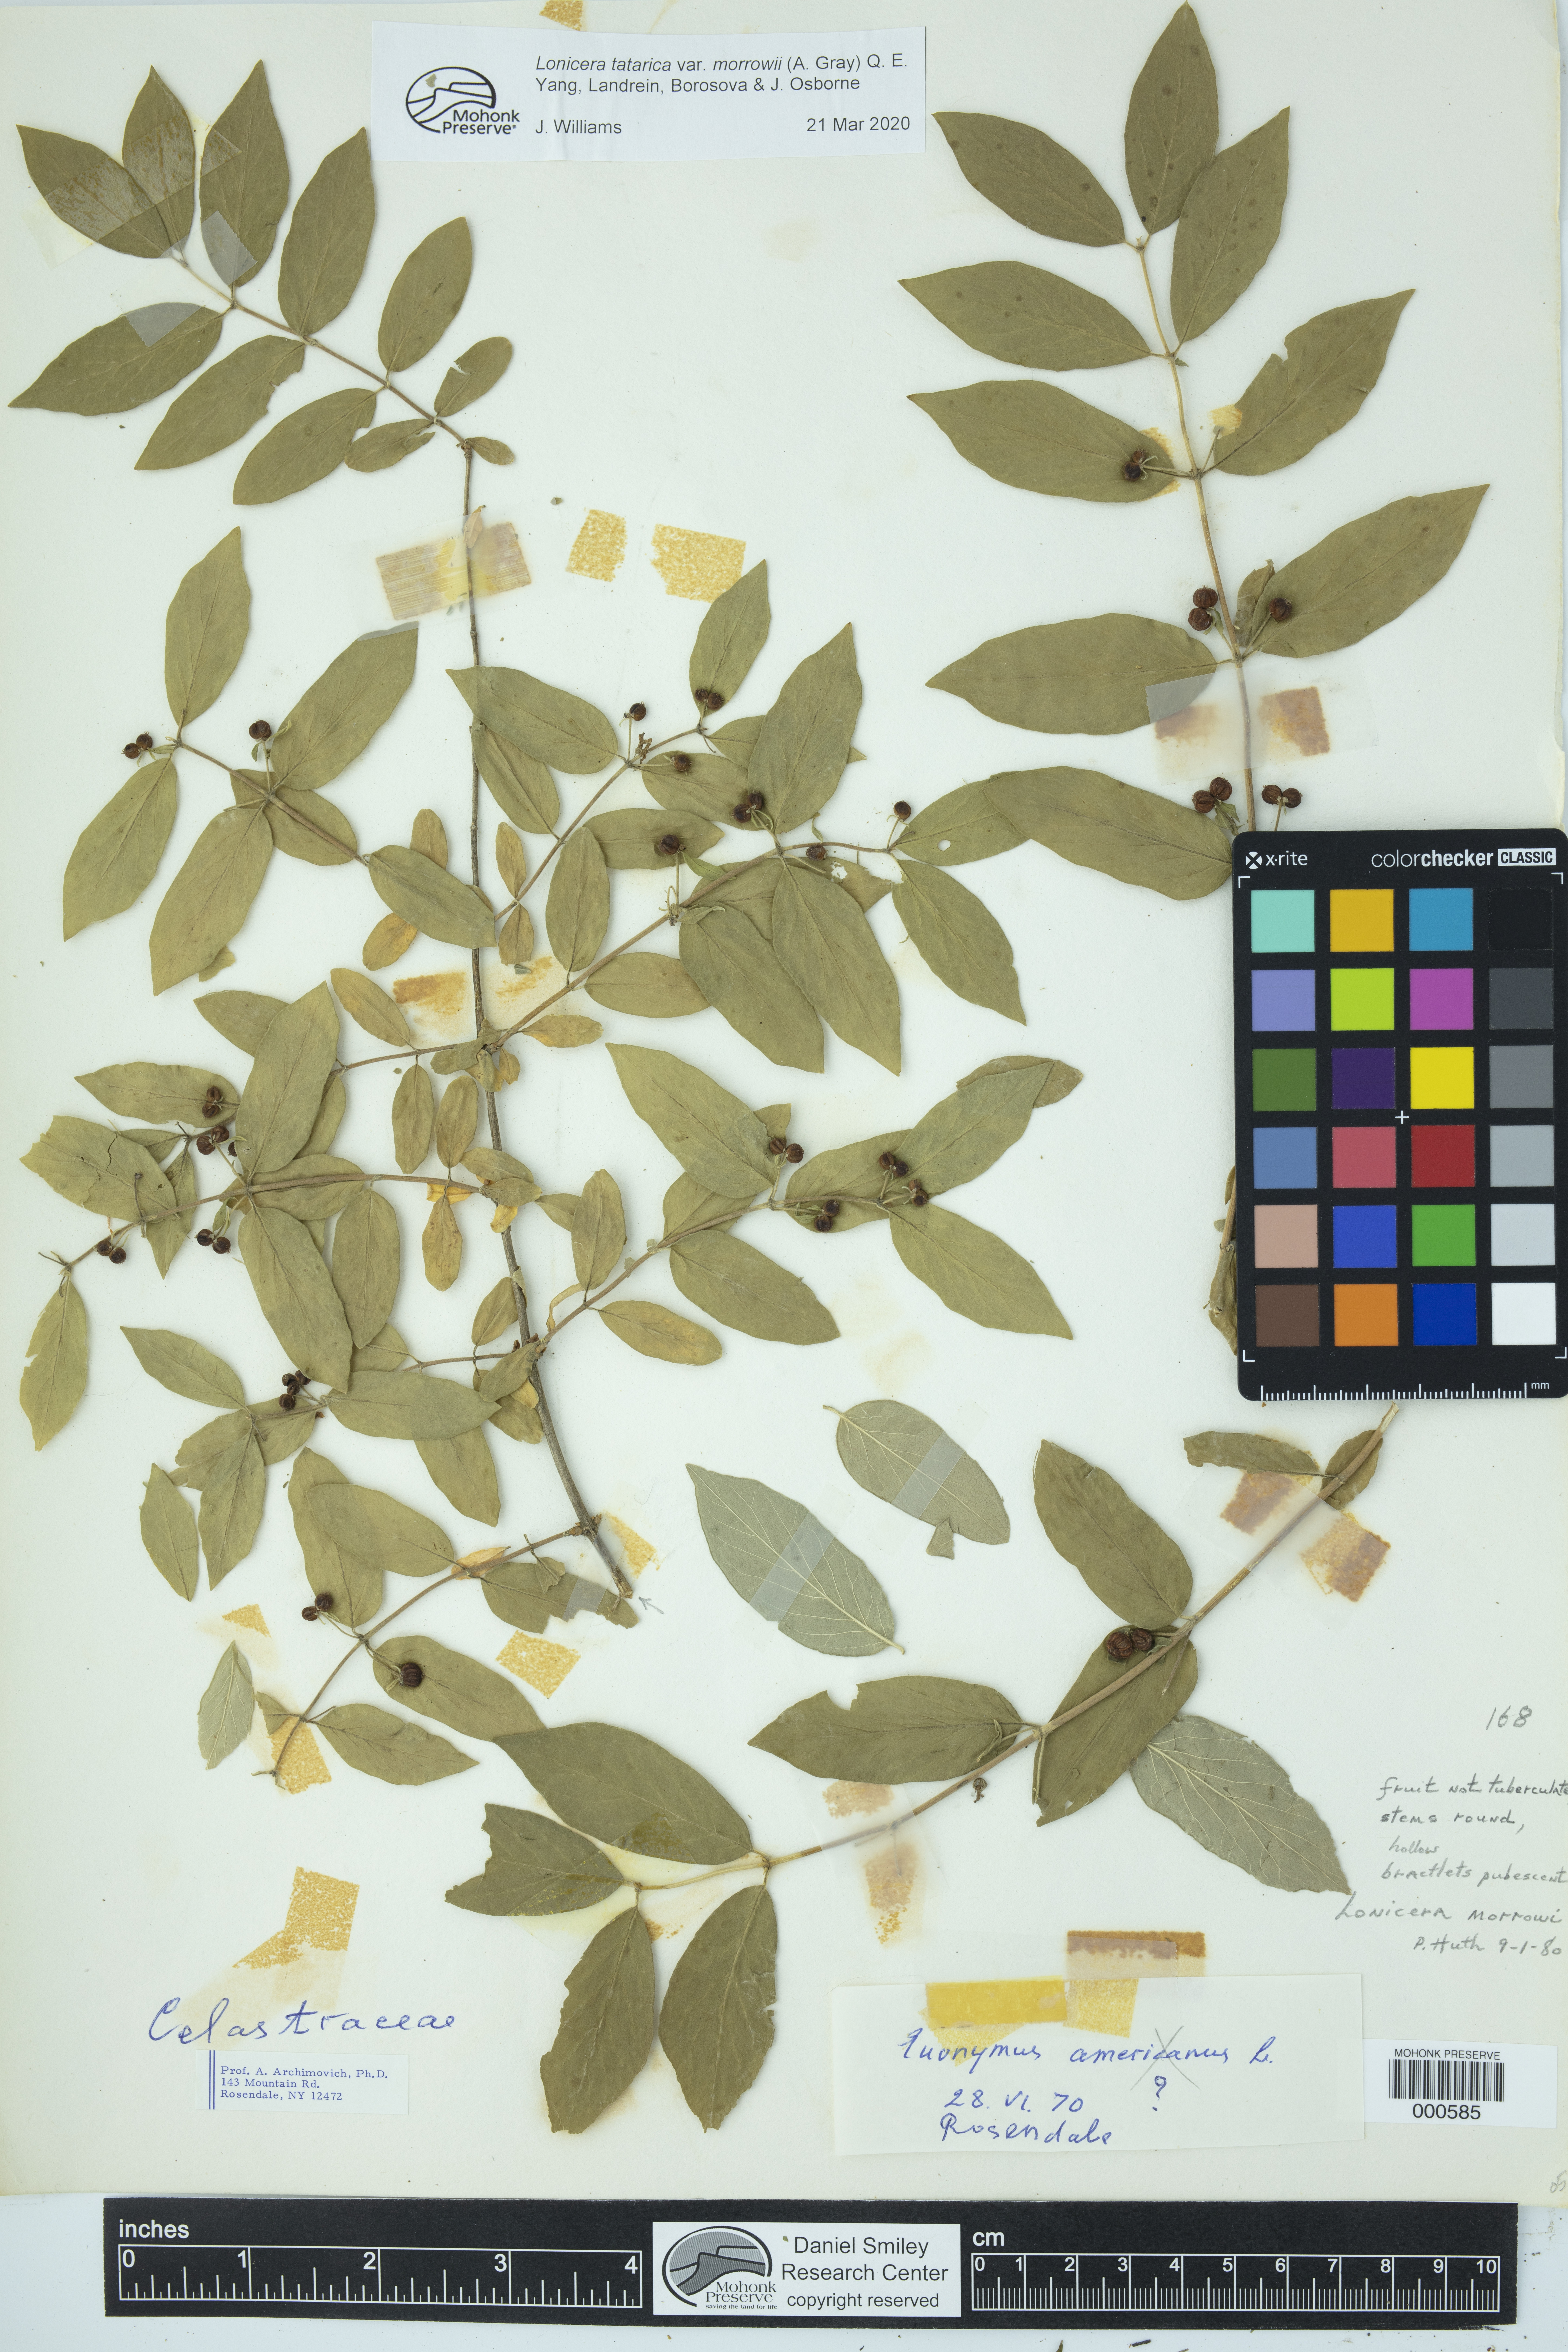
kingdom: Plantae
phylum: Tracheophyta
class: Magnoliopsida
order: Dipsacales
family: Caprifoliaceae
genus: Lonicera
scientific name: Lonicera morrowii
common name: Morrow's honeysuckle
